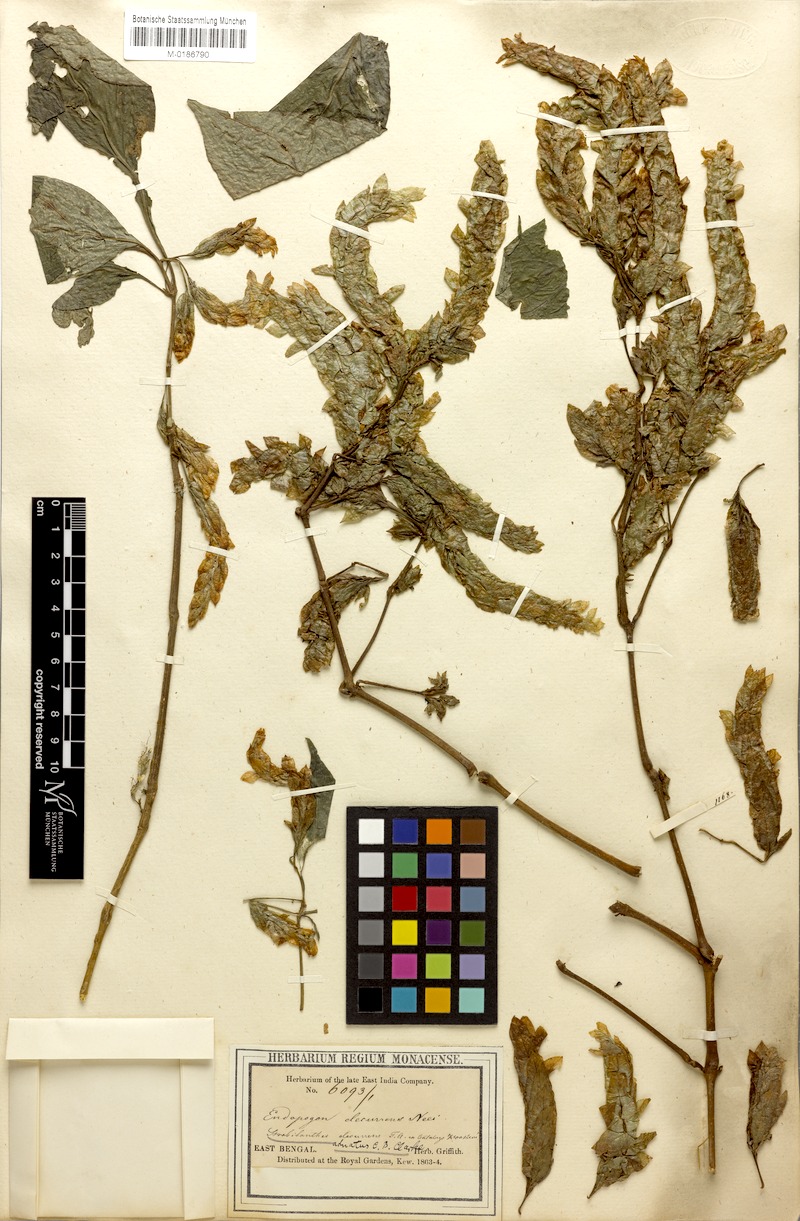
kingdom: Plantae
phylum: Tracheophyta
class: Magnoliopsida
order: Lamiales
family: Acanthaceae
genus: Strobilanthes
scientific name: Strobilanthes adnata
